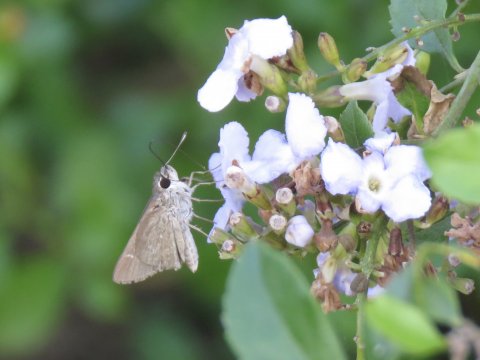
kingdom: Animalia
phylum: Arthropoda
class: Insecta
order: Lepidoptera
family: Hesperiidae
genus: Lerodea
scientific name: Lerodea eufala
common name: Eufala Skipper
